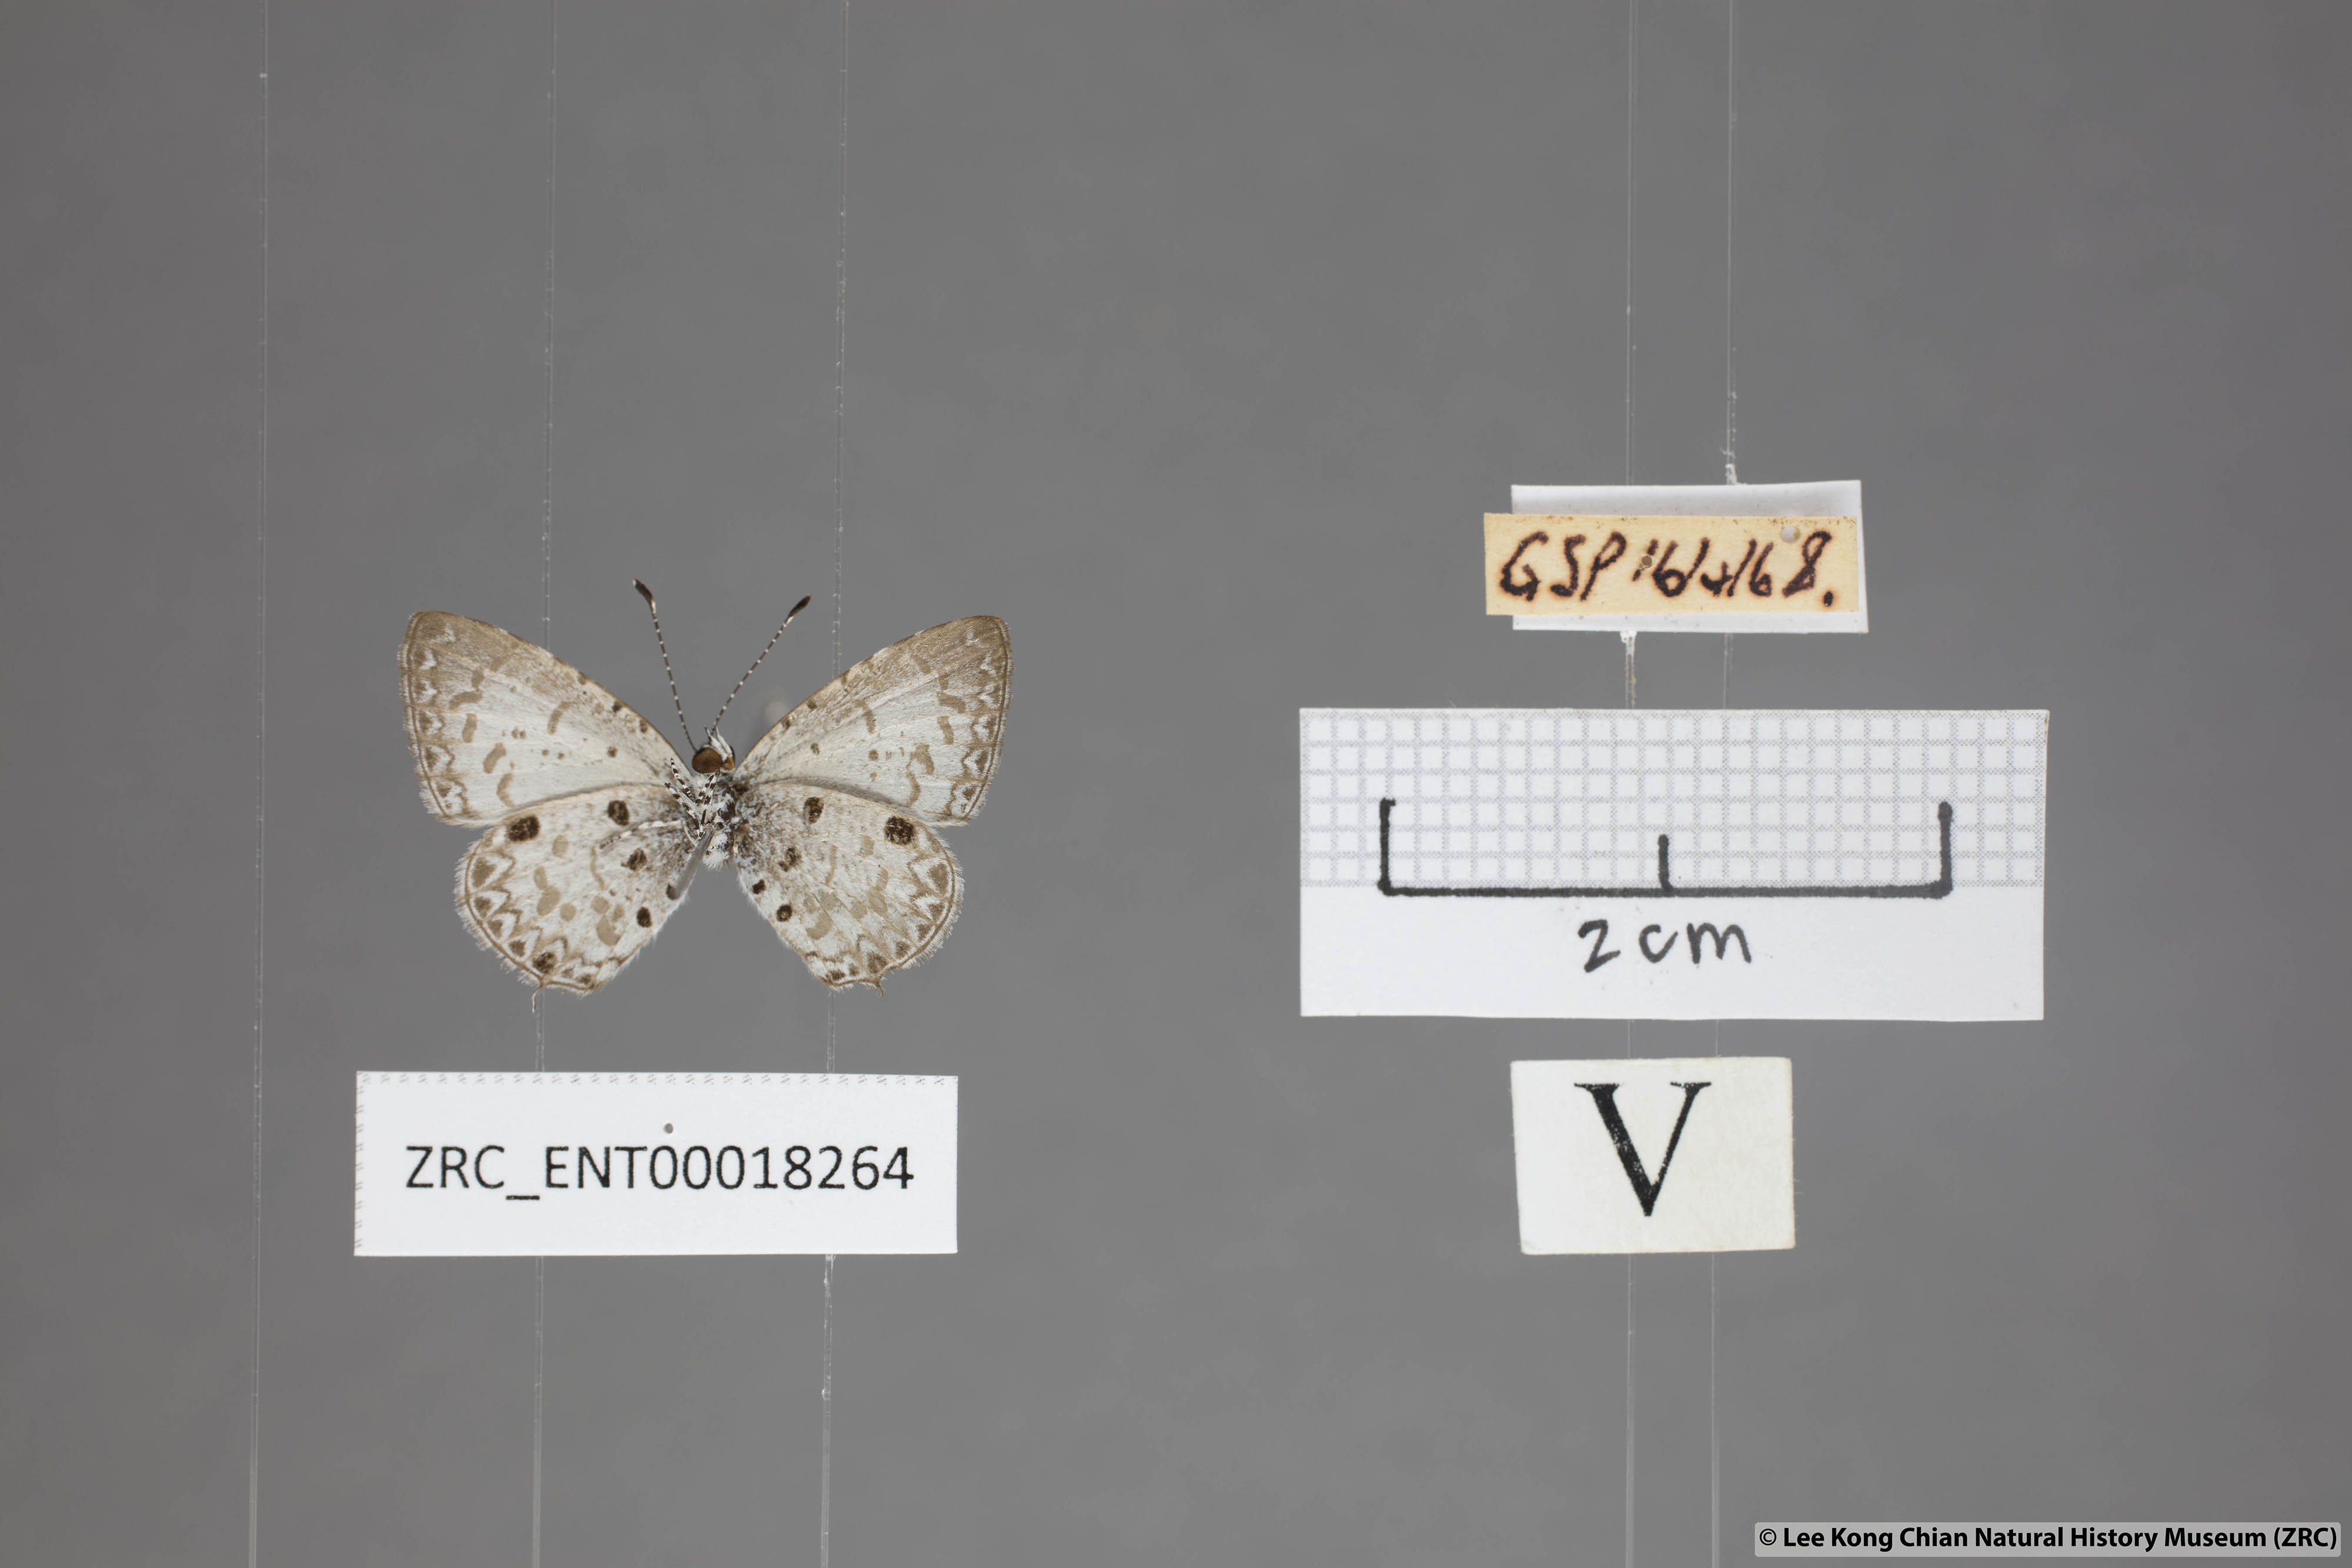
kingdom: Animalia
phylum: Arthropoda
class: Insecta
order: Lepidoptera
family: Lycaenidae
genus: Megisba
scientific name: Megisba malaya
